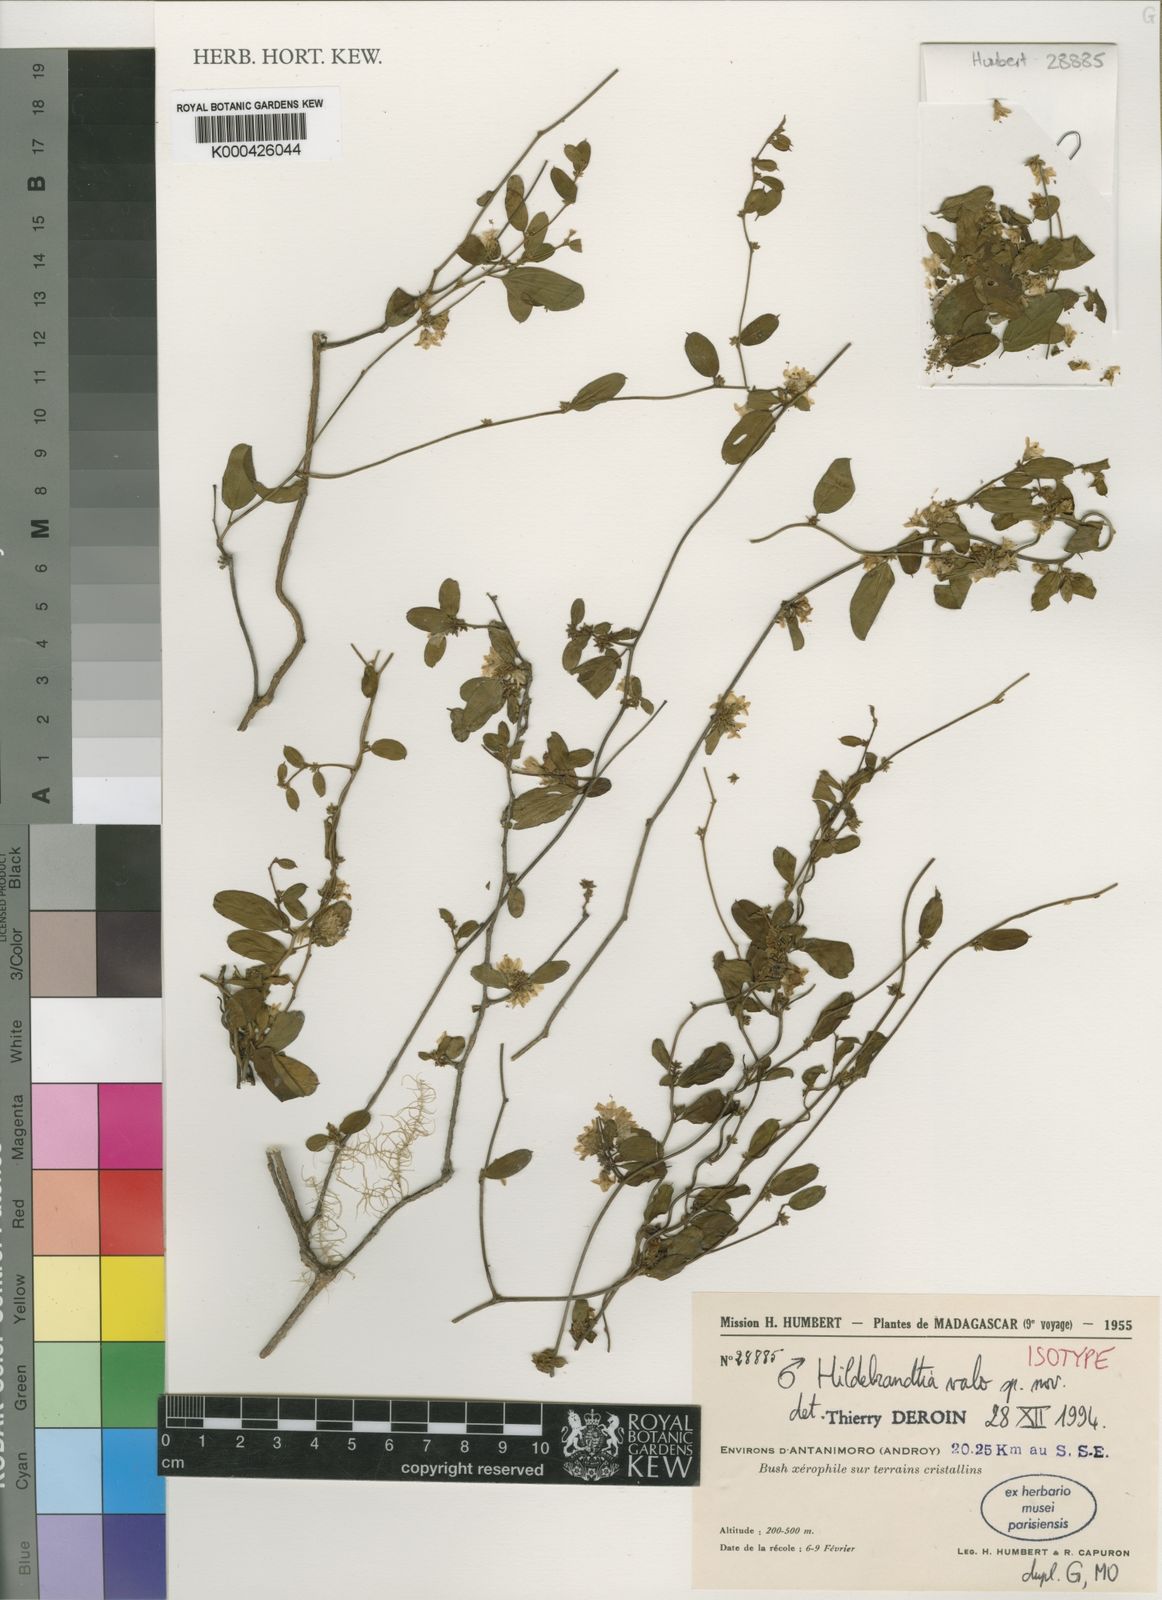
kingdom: Plantae
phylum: Tracheophyta
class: Magnoliopsida
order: Solanales
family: Convolvulaceae
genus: Hildebrandtia
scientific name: Hildebrandtia valo
